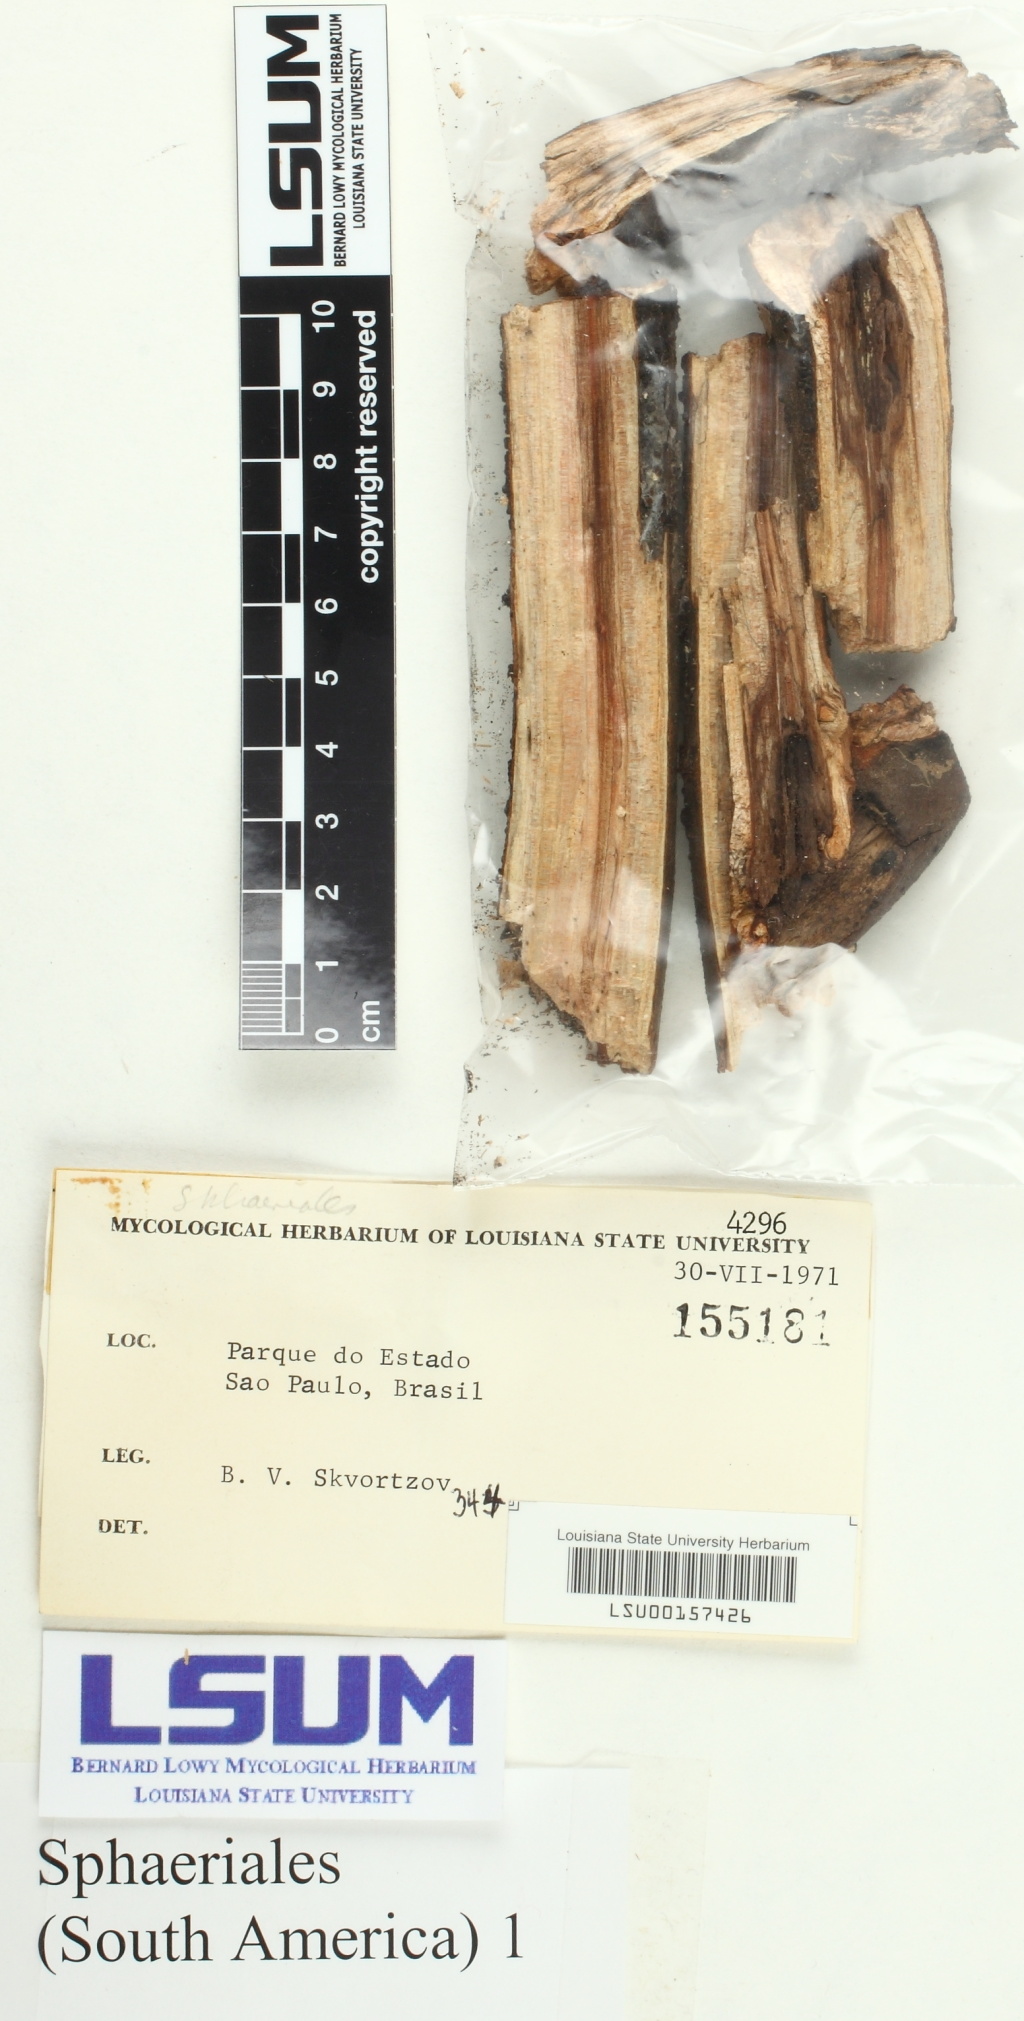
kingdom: Fungi
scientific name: Fungi
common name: Fungi
